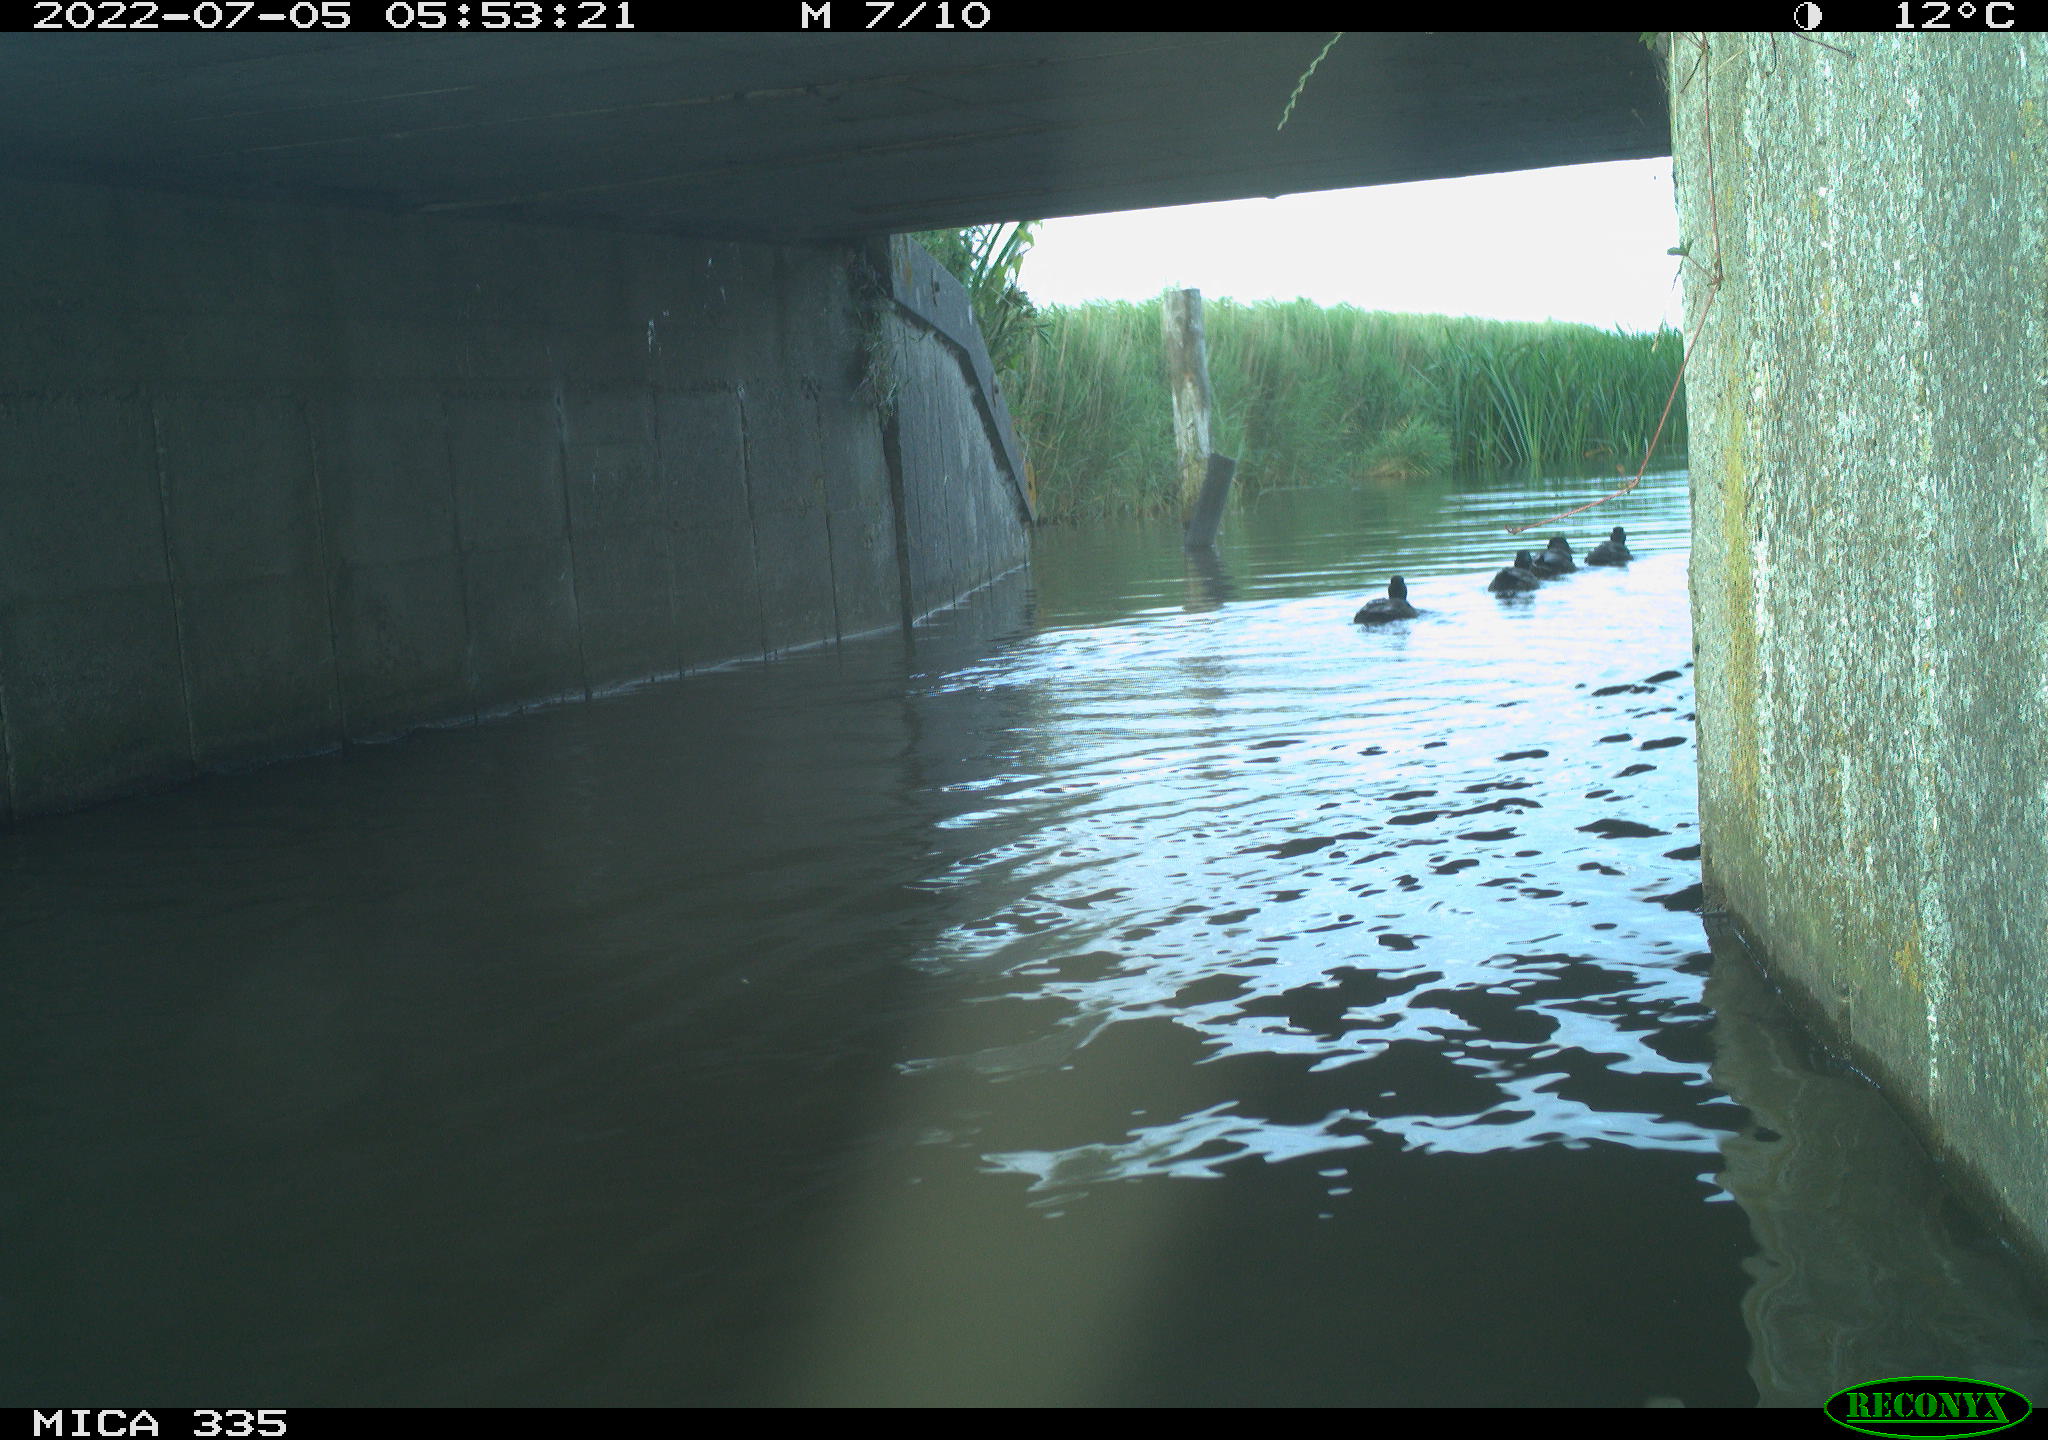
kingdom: Animalia
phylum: Chordata
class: Aves
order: Anseriformes
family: Anatidae
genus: Anas
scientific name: Anas platyrhynchos
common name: Mallard
